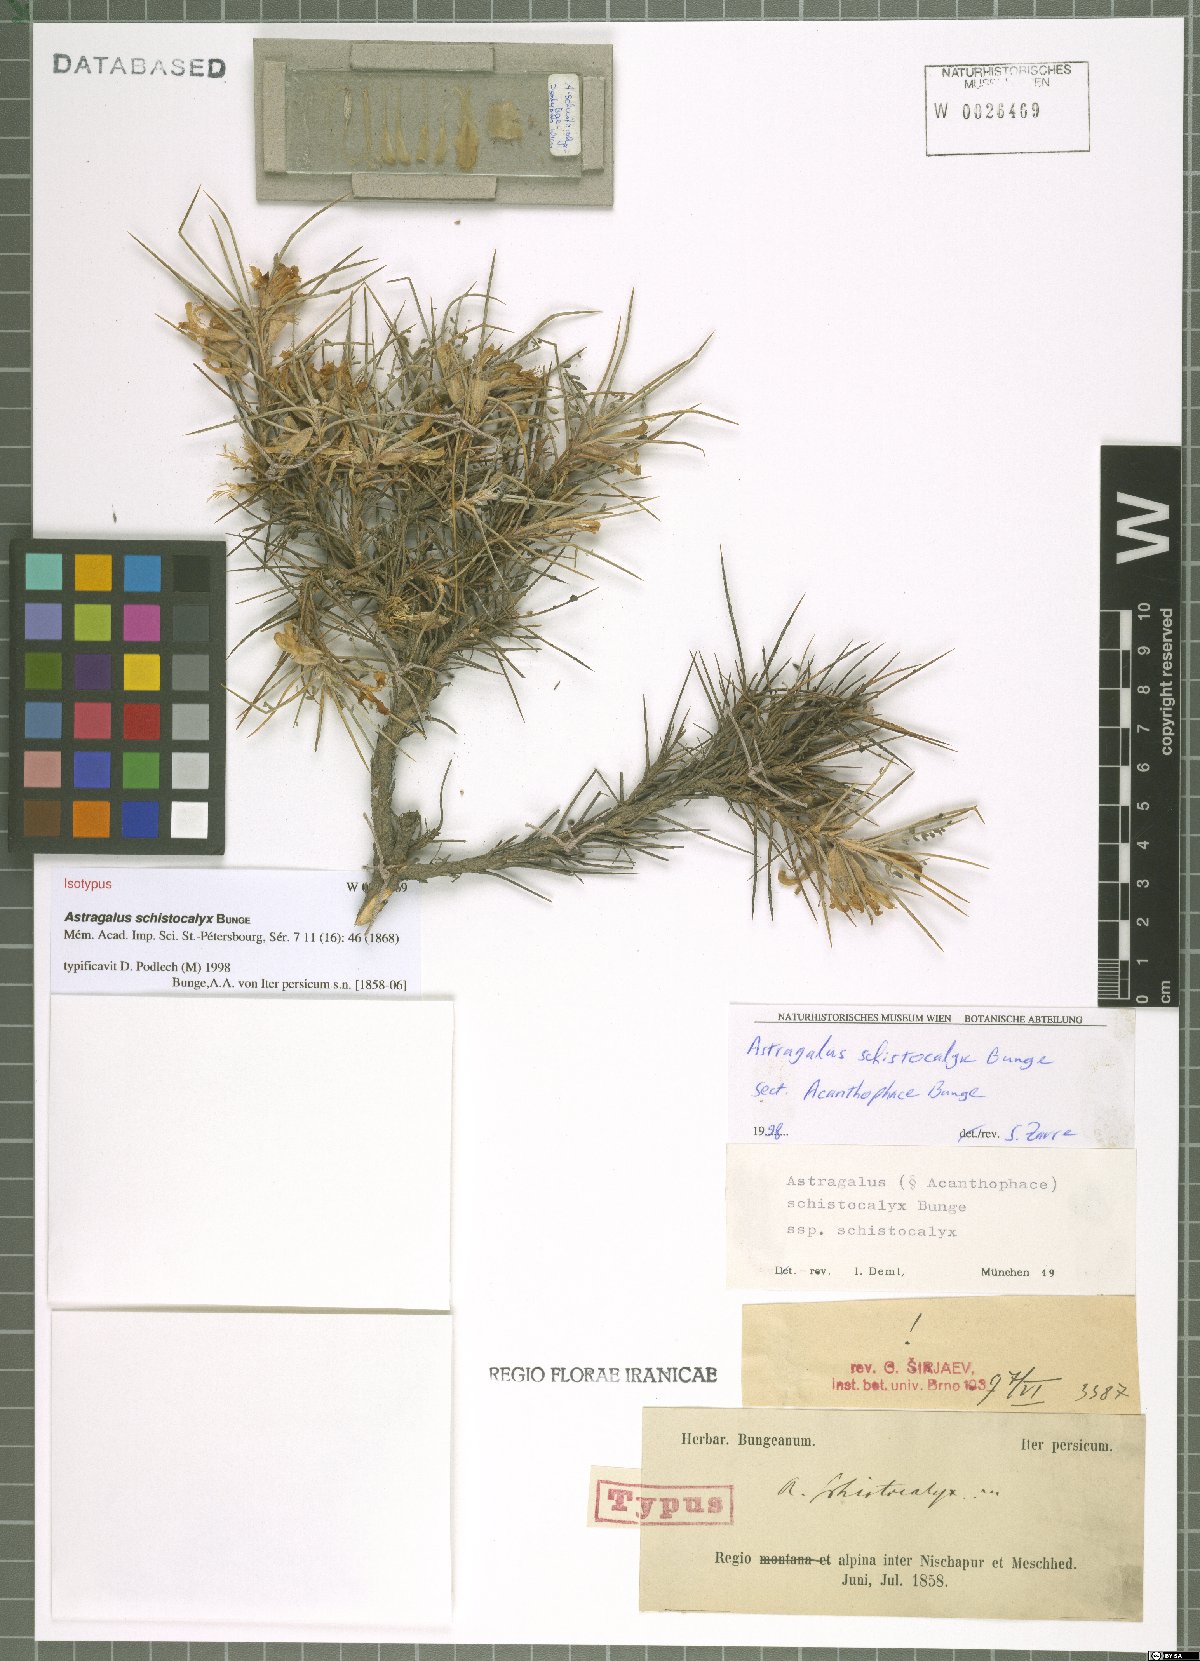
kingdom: Plantae
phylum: Tracheophyta
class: Magnoliopsida
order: Fabales
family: Fabaceae
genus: Astragalus
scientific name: Astragalus lycioides
